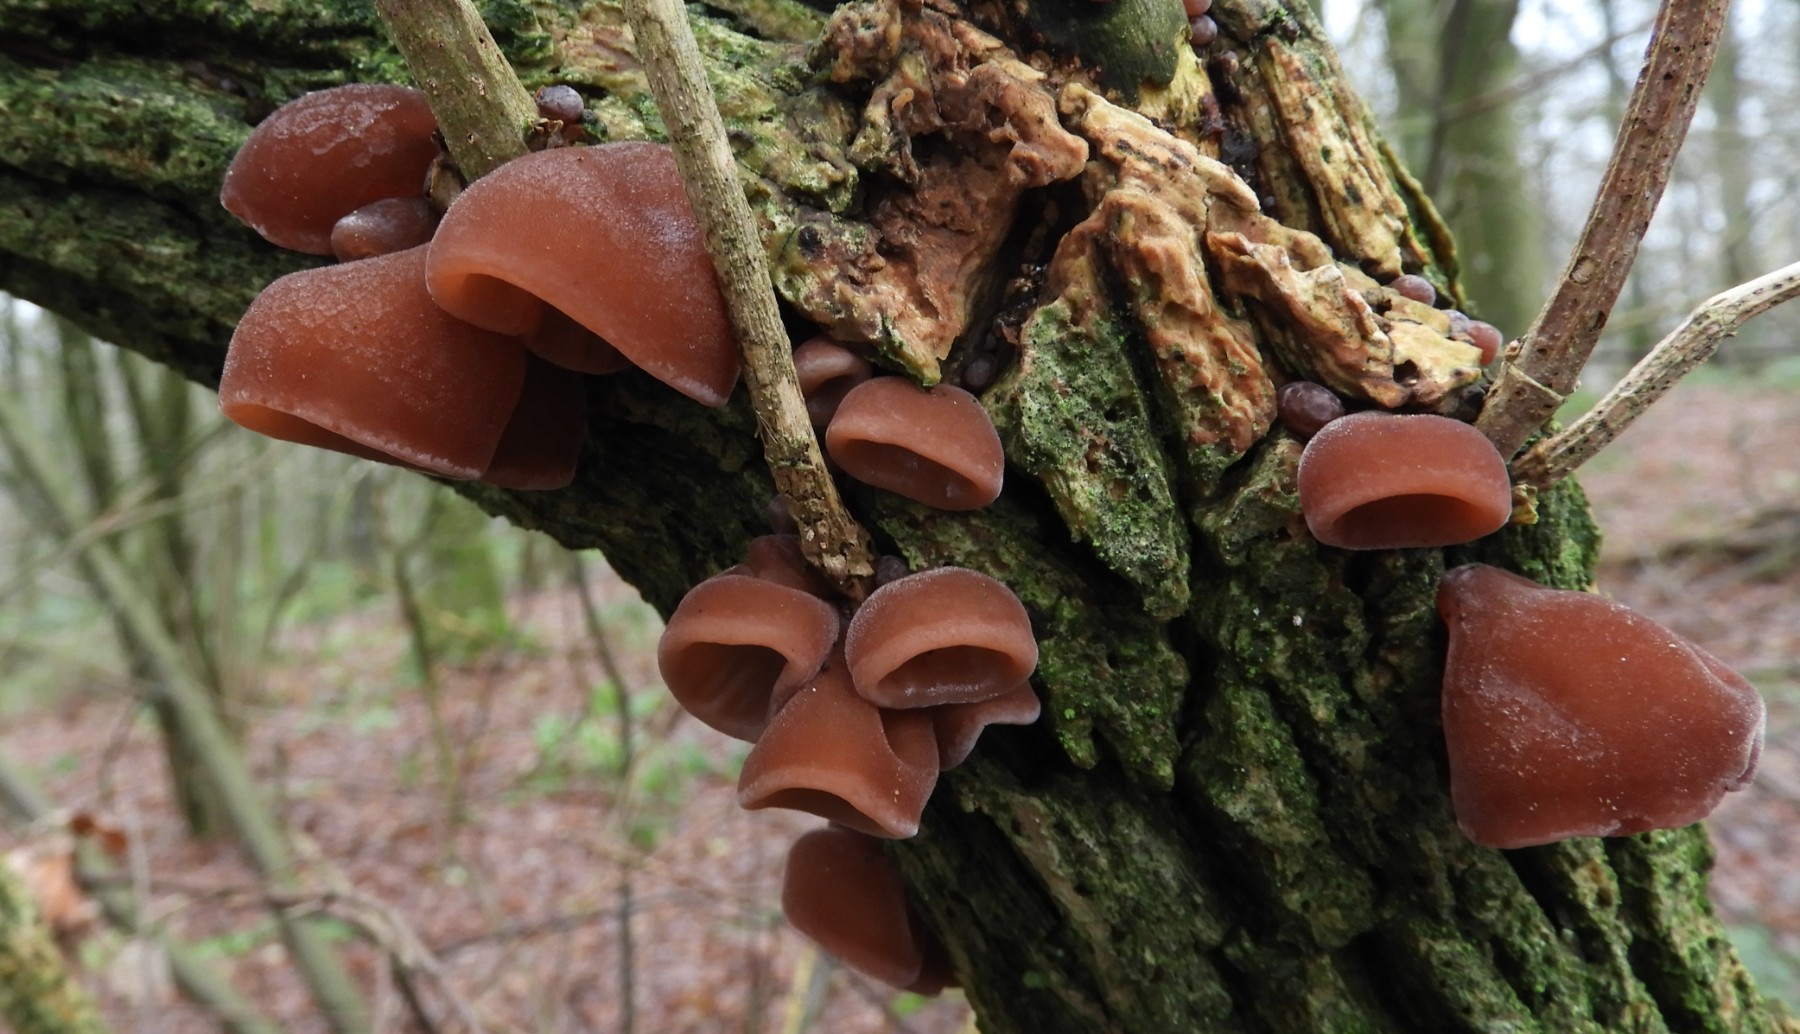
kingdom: Fungi
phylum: Basidiomycota
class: Agaricomycetes
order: Auriculariales
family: Auriculariaceae
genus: Auricularia
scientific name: Auricularia auricula-judae
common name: almindelig judasøre
